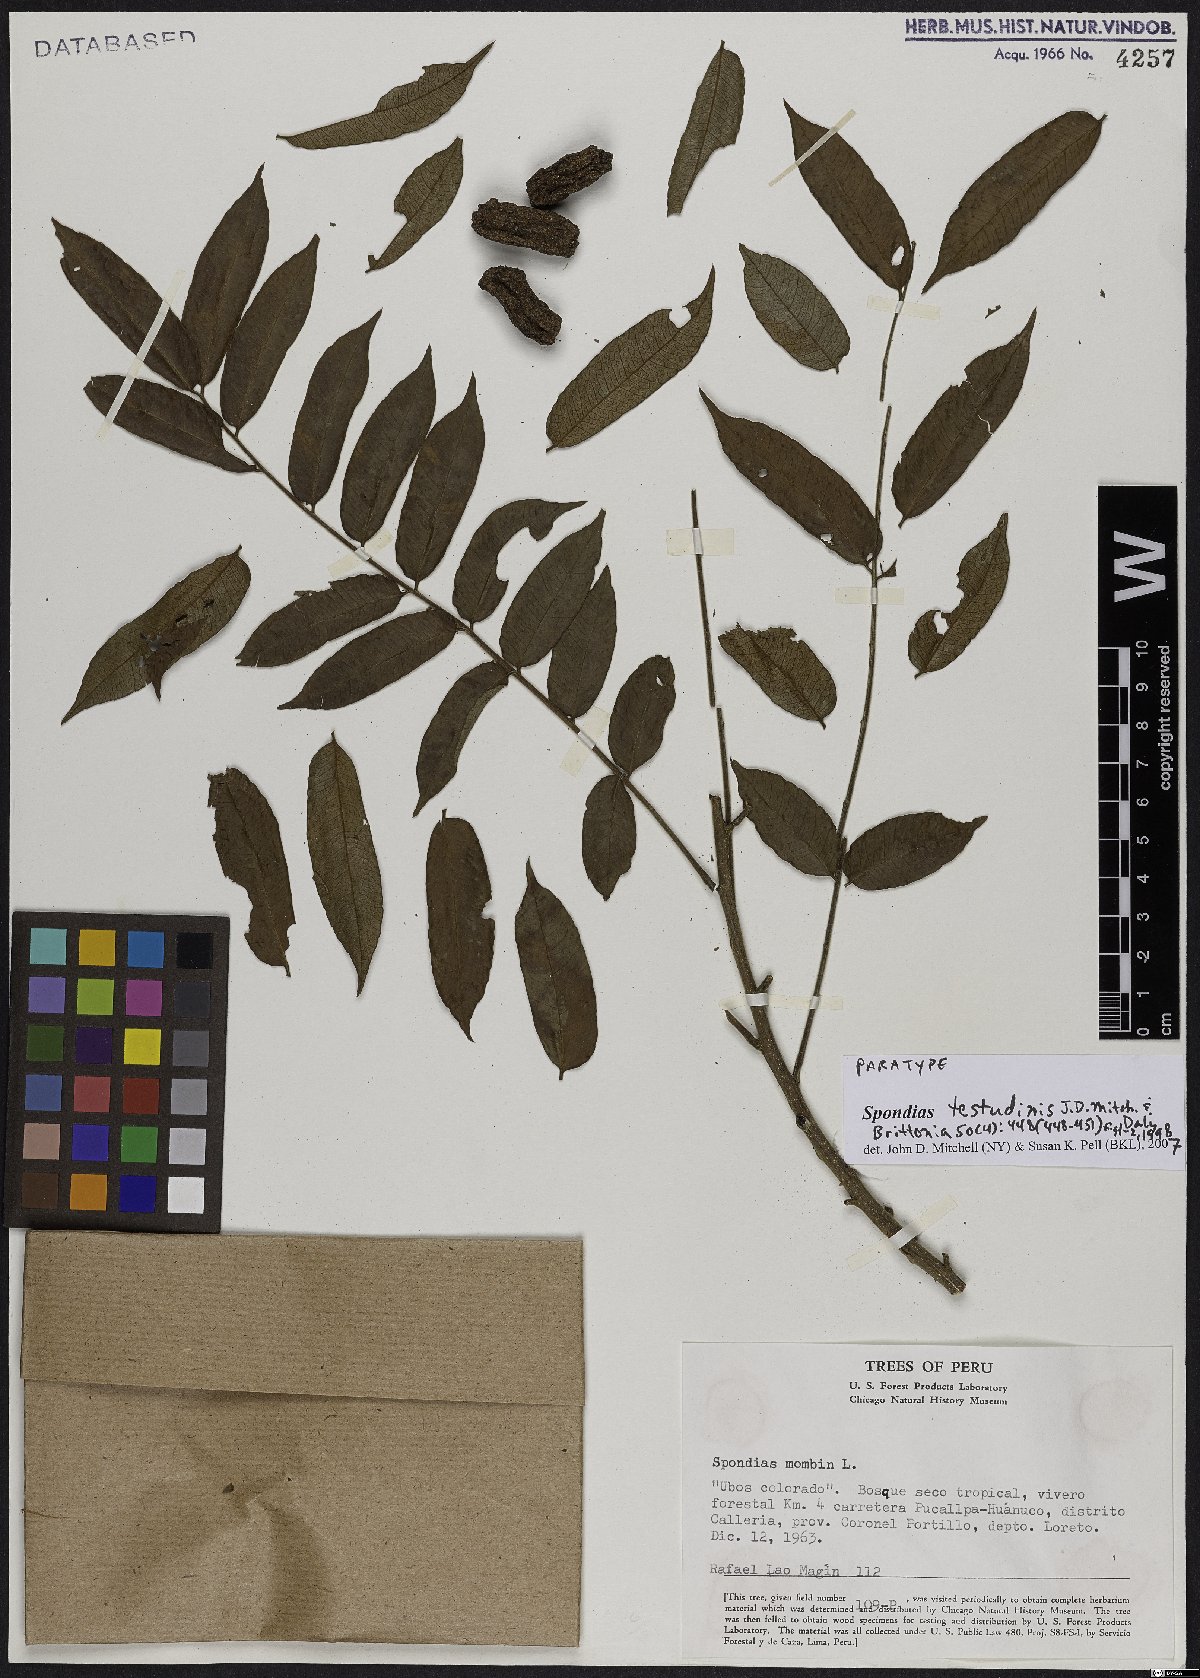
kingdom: Plantae
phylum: Tracheophyta
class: Magnoliopsida
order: Sapindales
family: Anacardiaceae
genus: Spondias
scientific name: Spondias testudinis
